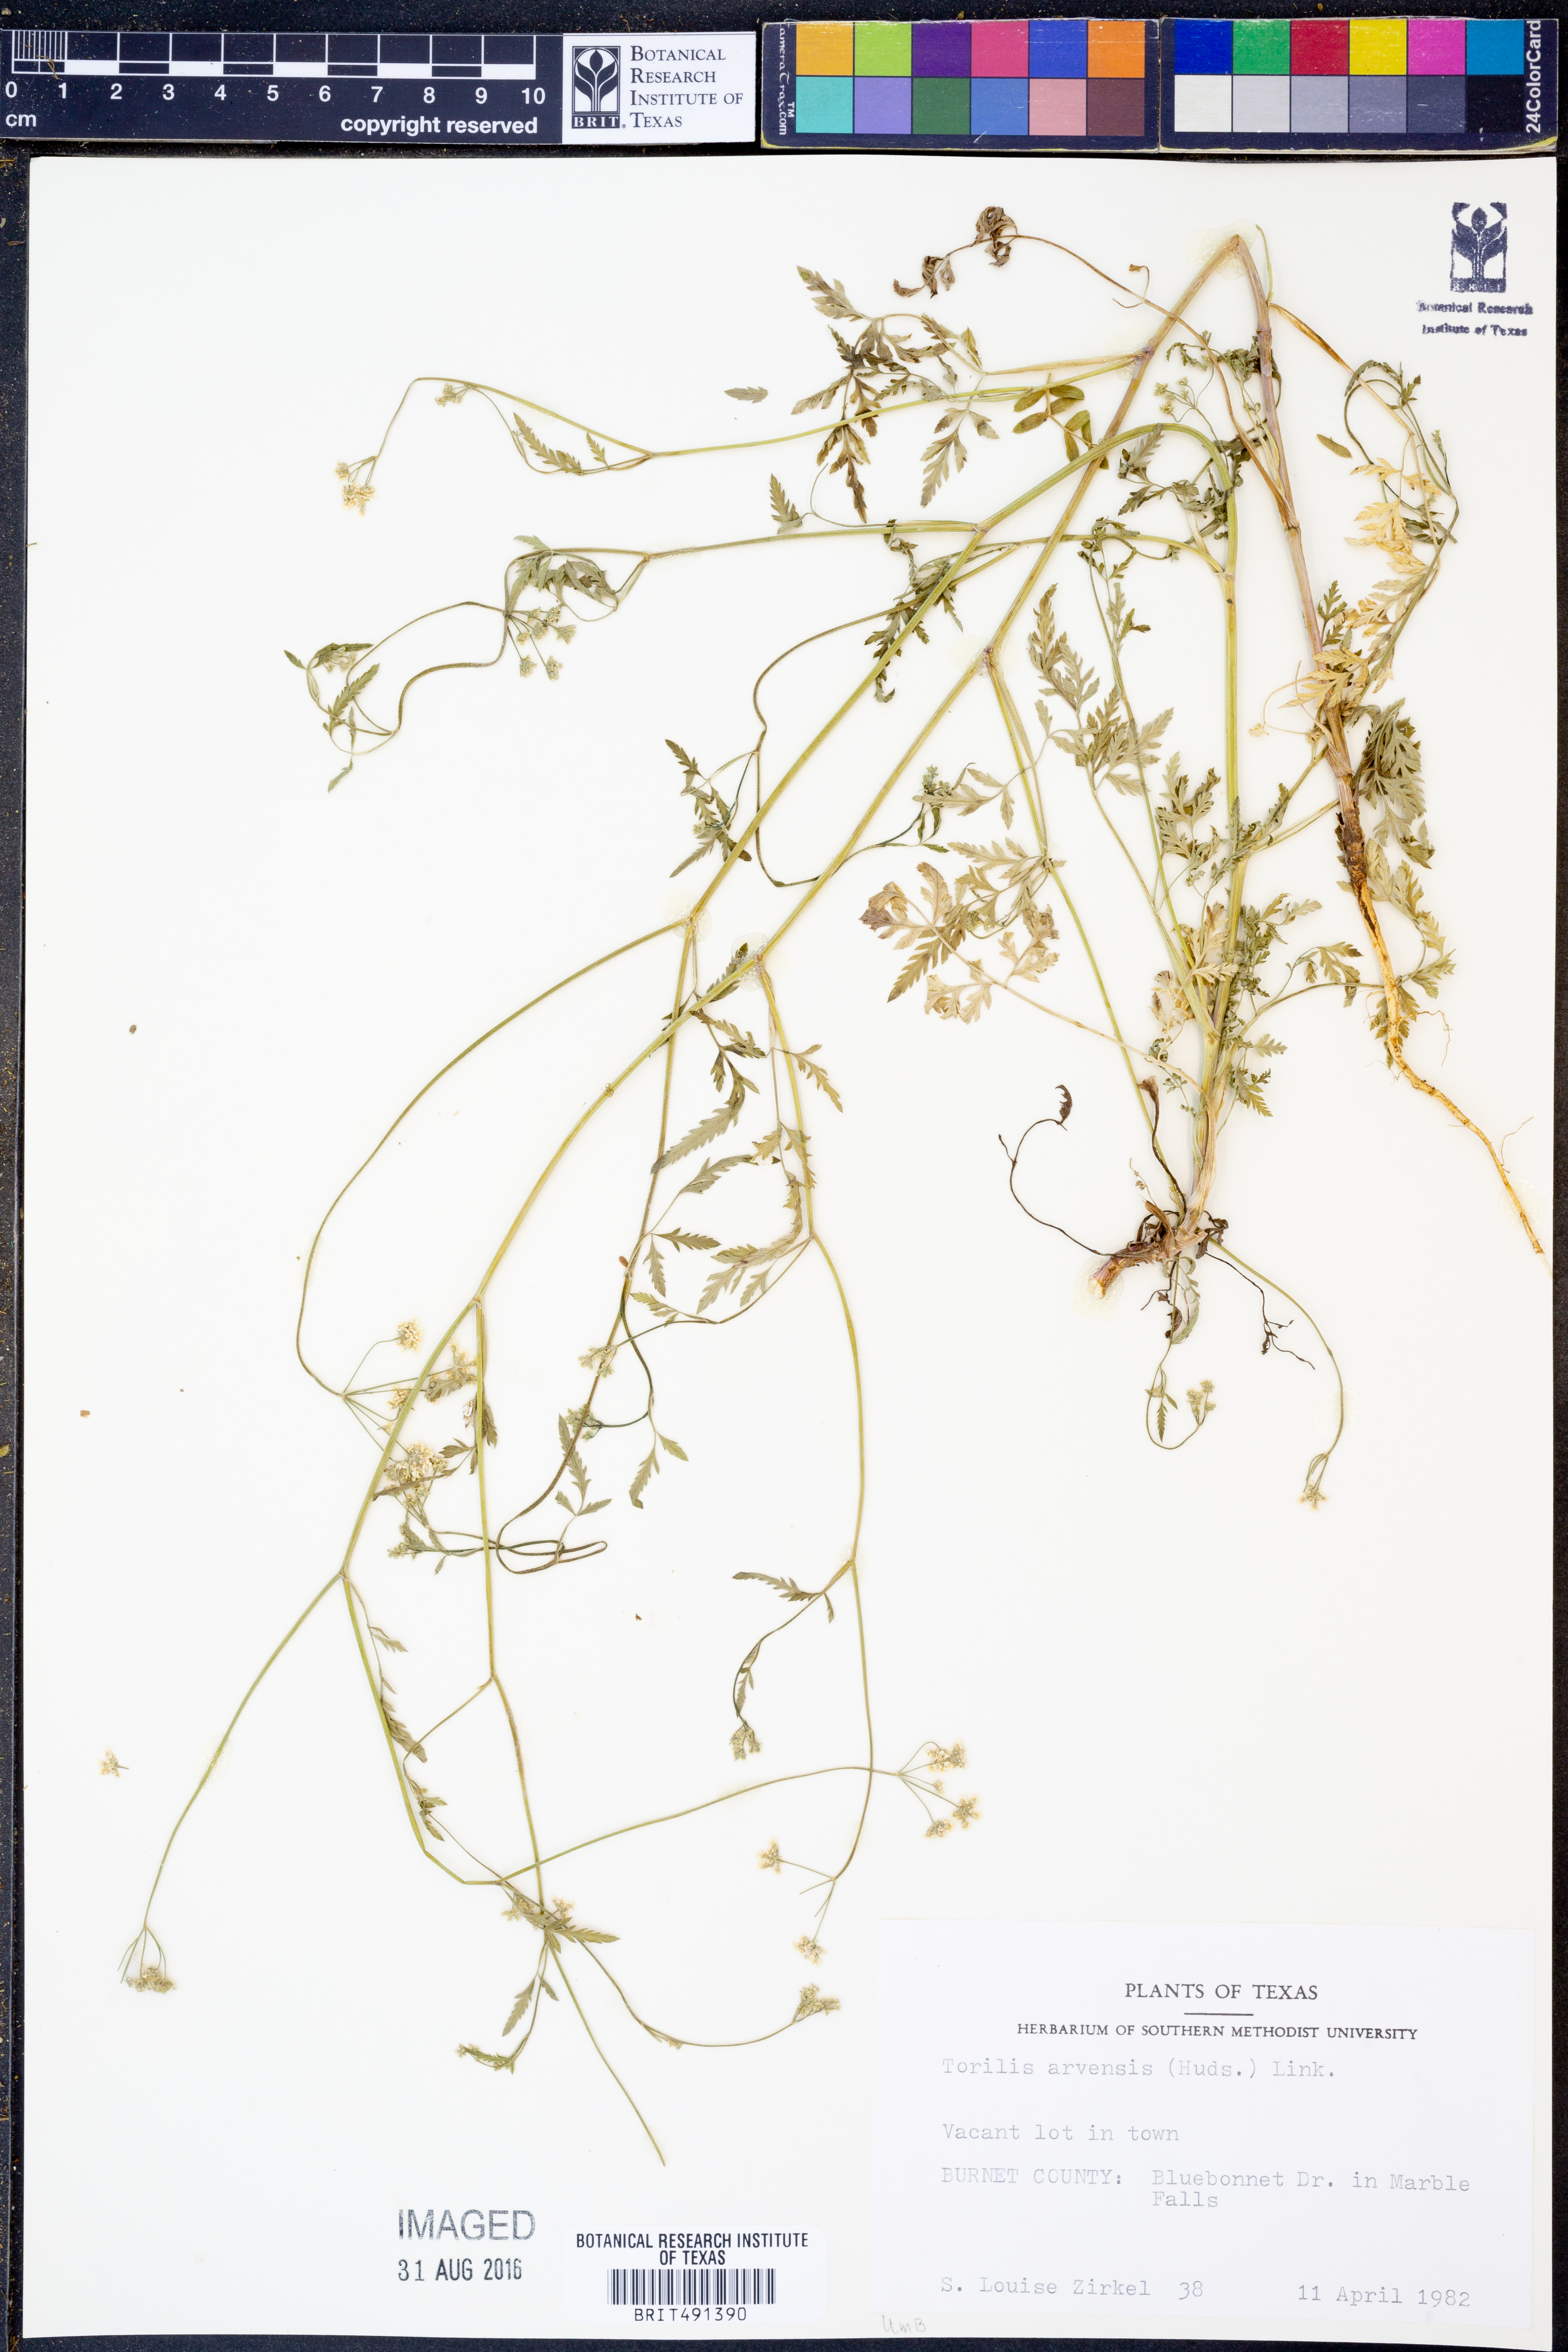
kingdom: Plantae
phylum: Tracheophyta
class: Magnoliopsida
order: Apiales
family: Apiaceae
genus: Torilis
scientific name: Torilis arvensis
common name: Spreading hedge-parsley
